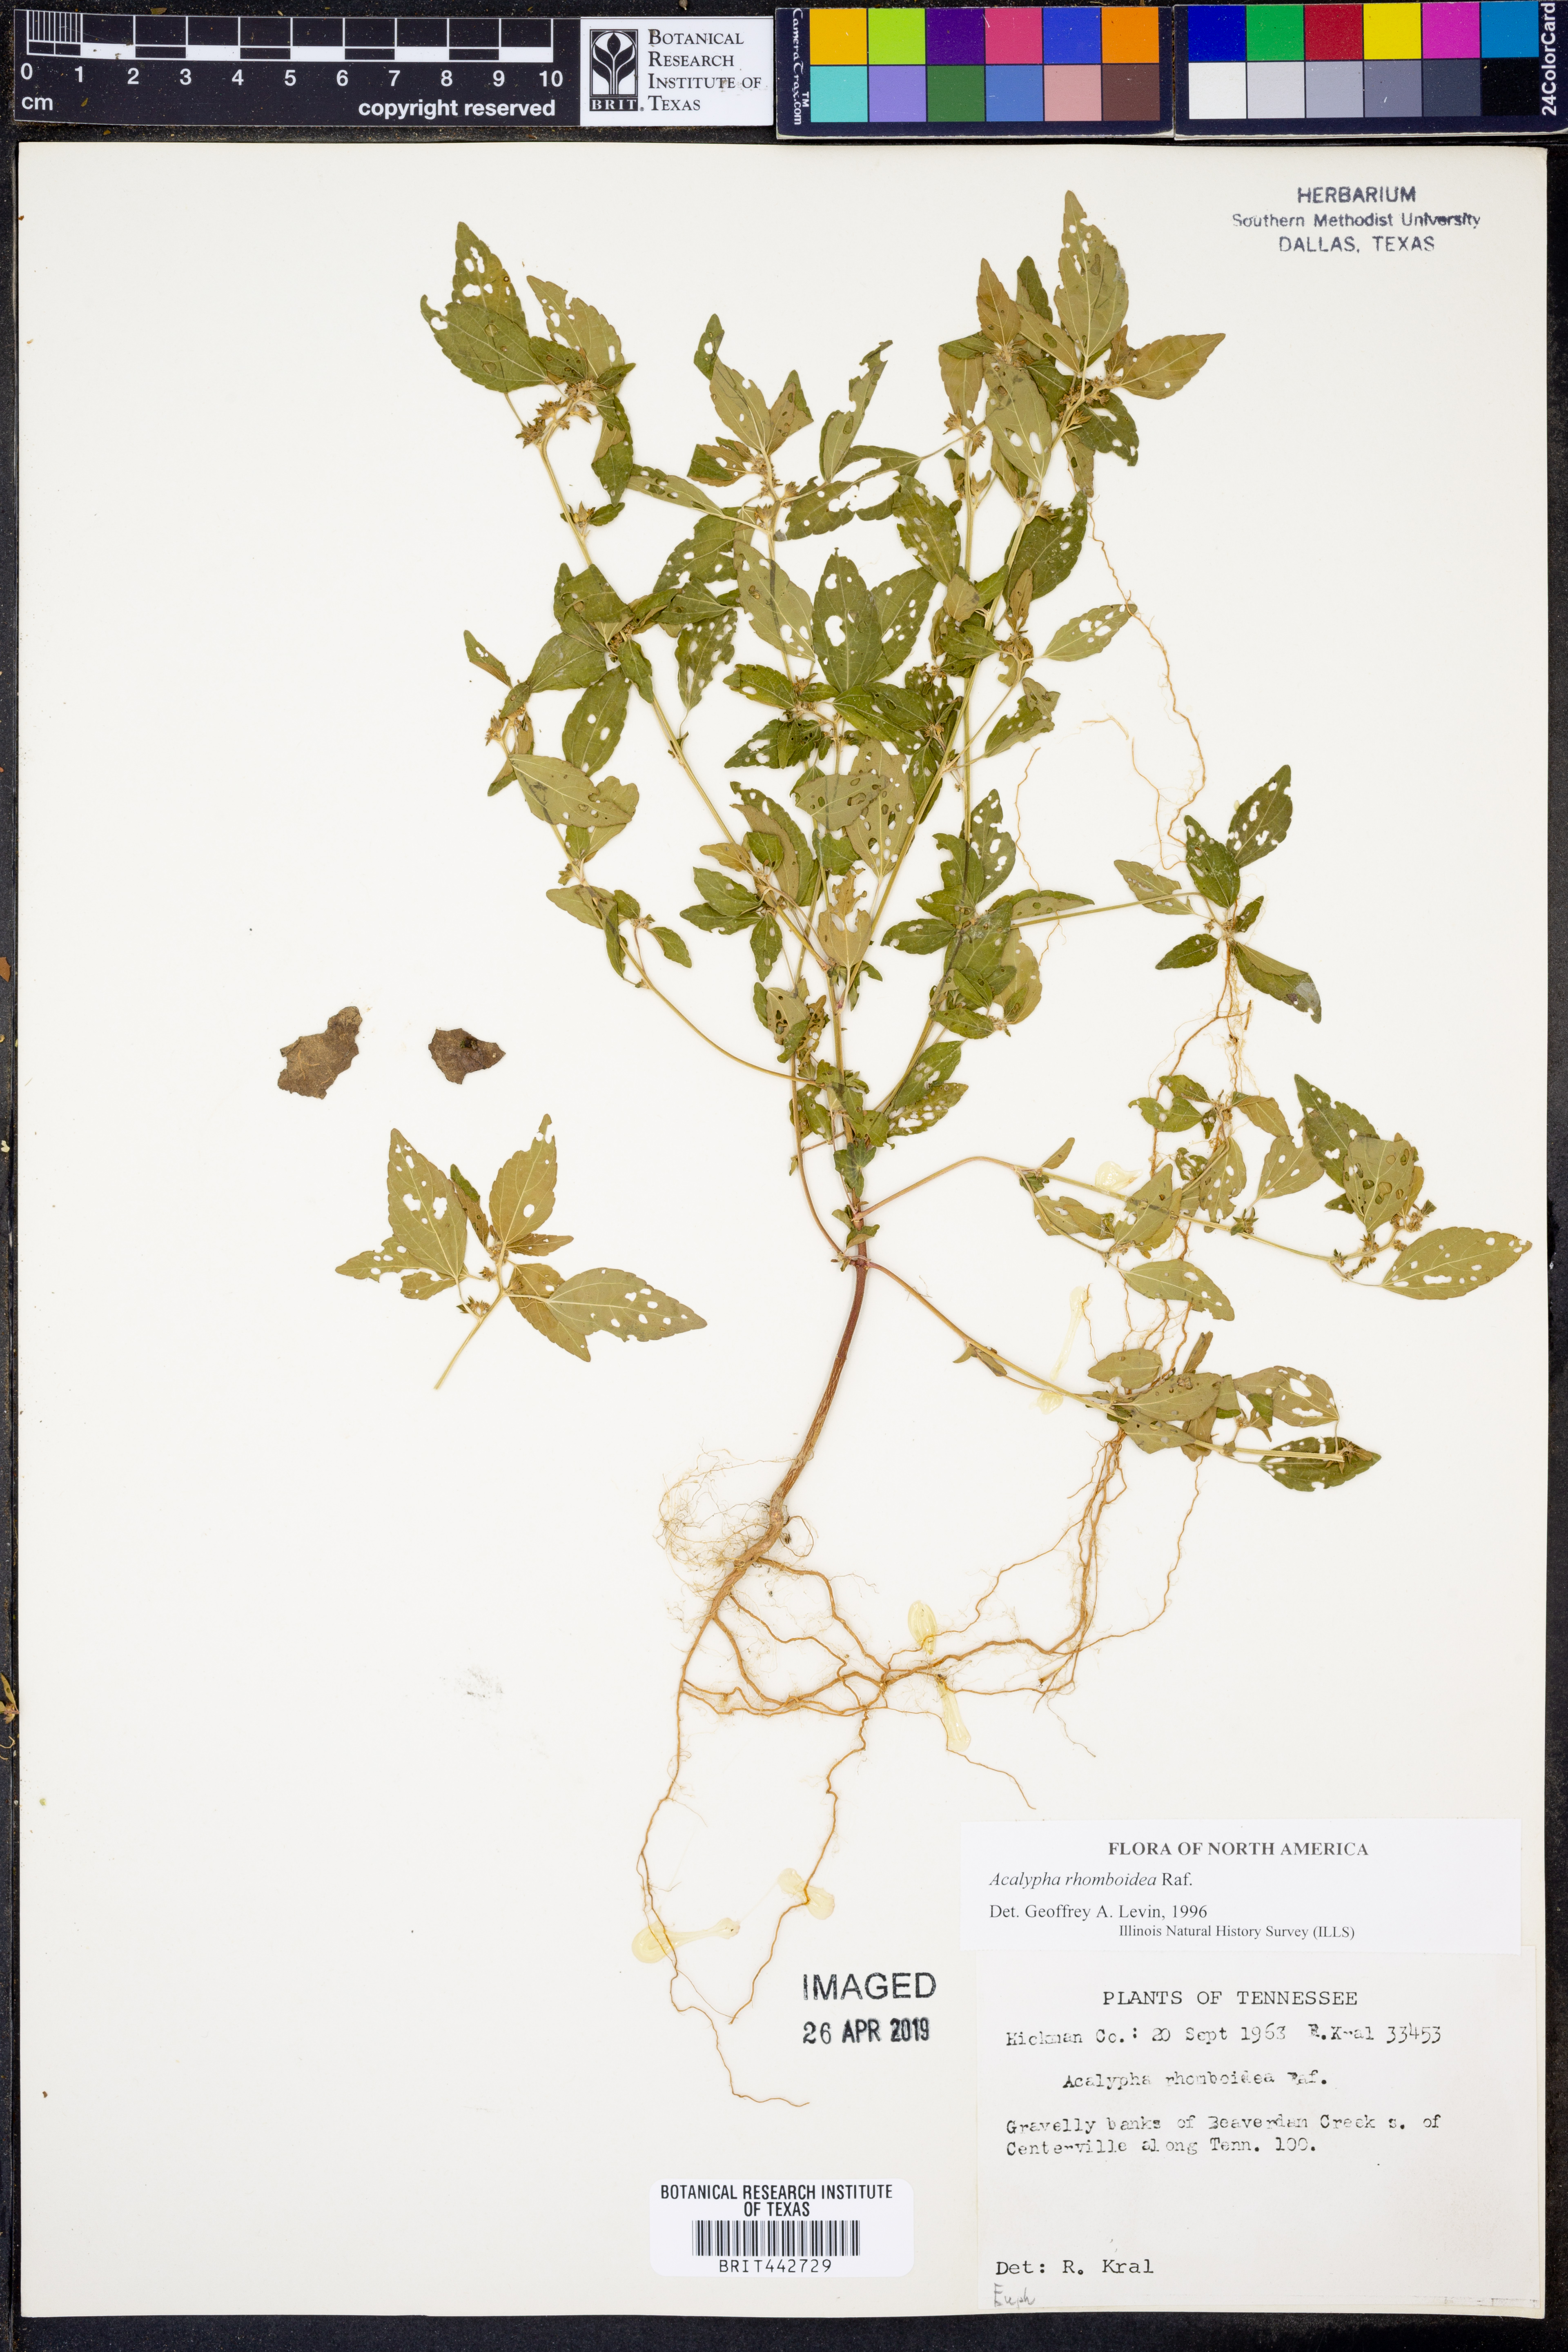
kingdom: Plantae
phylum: Tracheophyta
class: Magnoliopsida
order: Malpighiales
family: Euphorbiaceae
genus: Acalypha
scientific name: Acalypha rhomboidea
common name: Rhombic copperleaf
